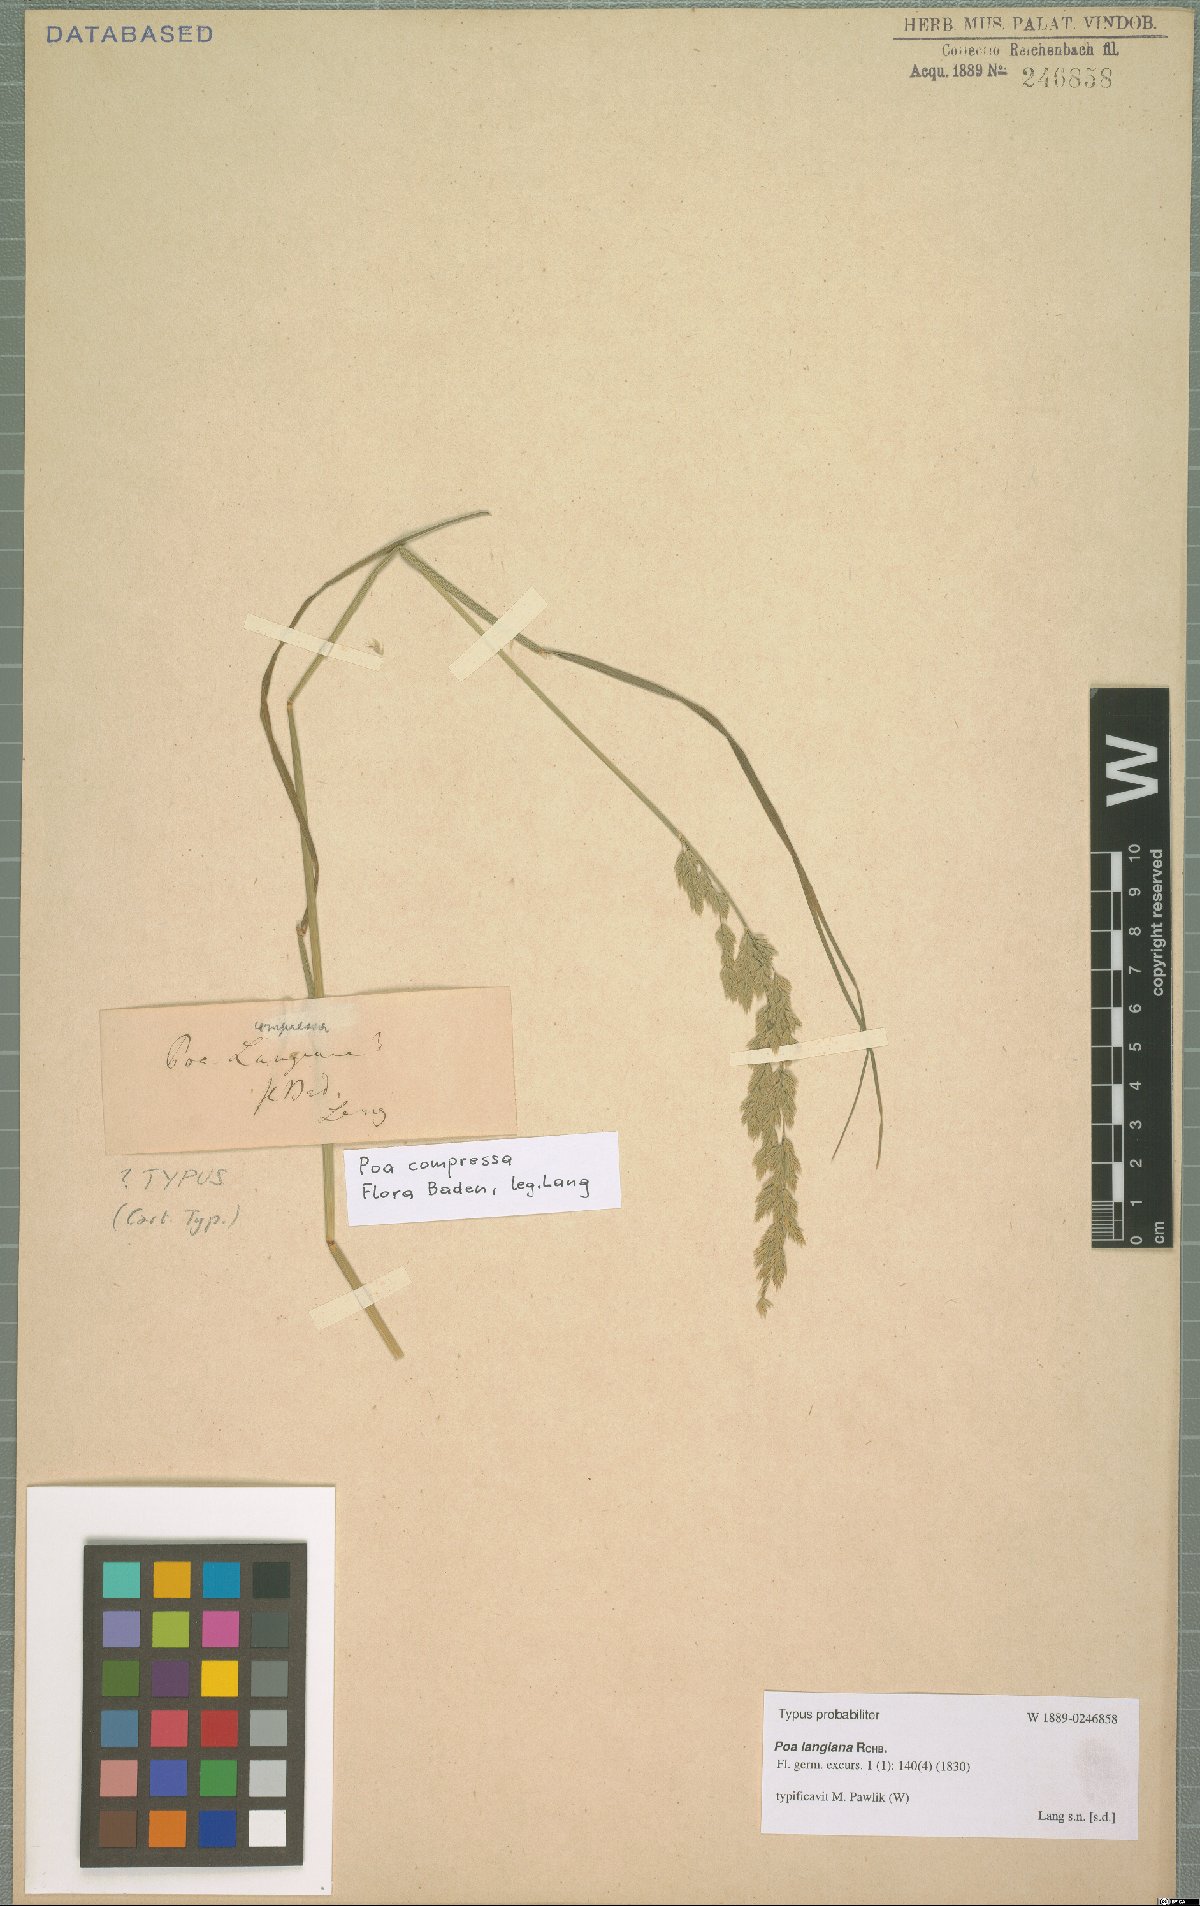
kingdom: Plantae
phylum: Tracheophyta
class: Liliopsida
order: Poales
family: Poaceae
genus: Poa
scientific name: Poa compressa
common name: Canada bluegrass
